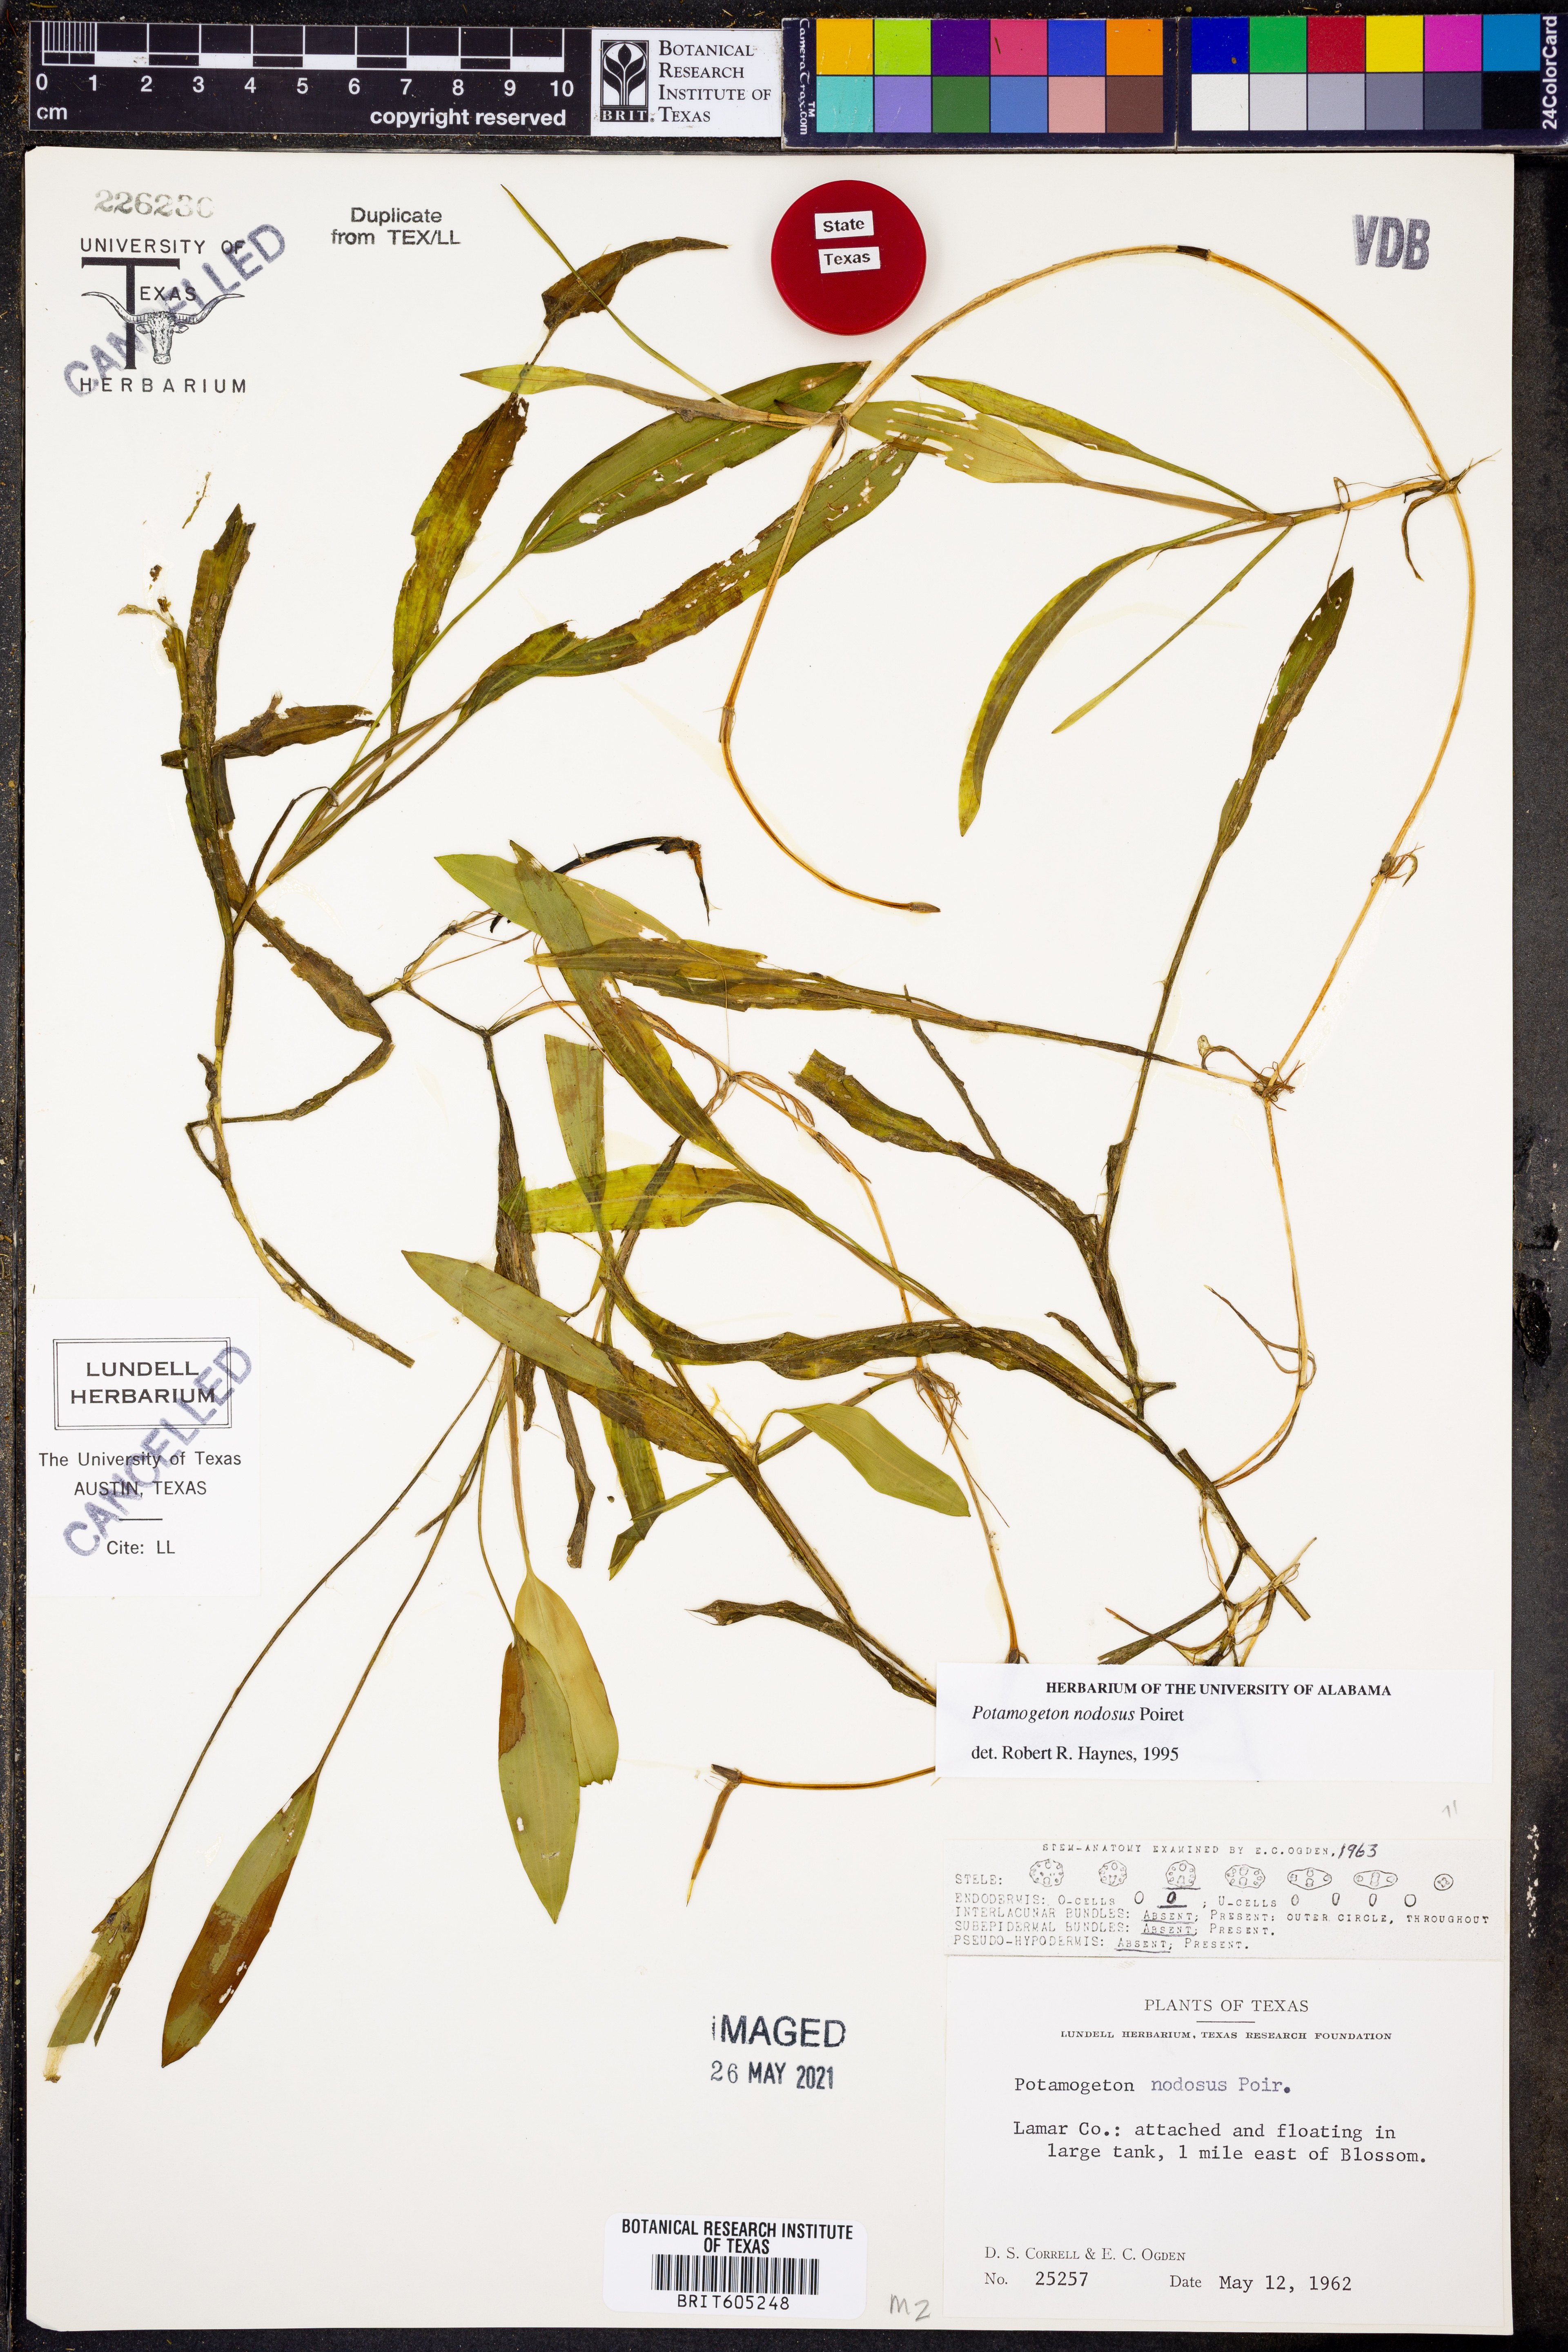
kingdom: Plantae
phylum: Tracheophyta
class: Liliopsida
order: Alismatales
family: Potamogetonaceae
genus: Potamogeton
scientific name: Potamogeton nodosus
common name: Loddon pondweed
